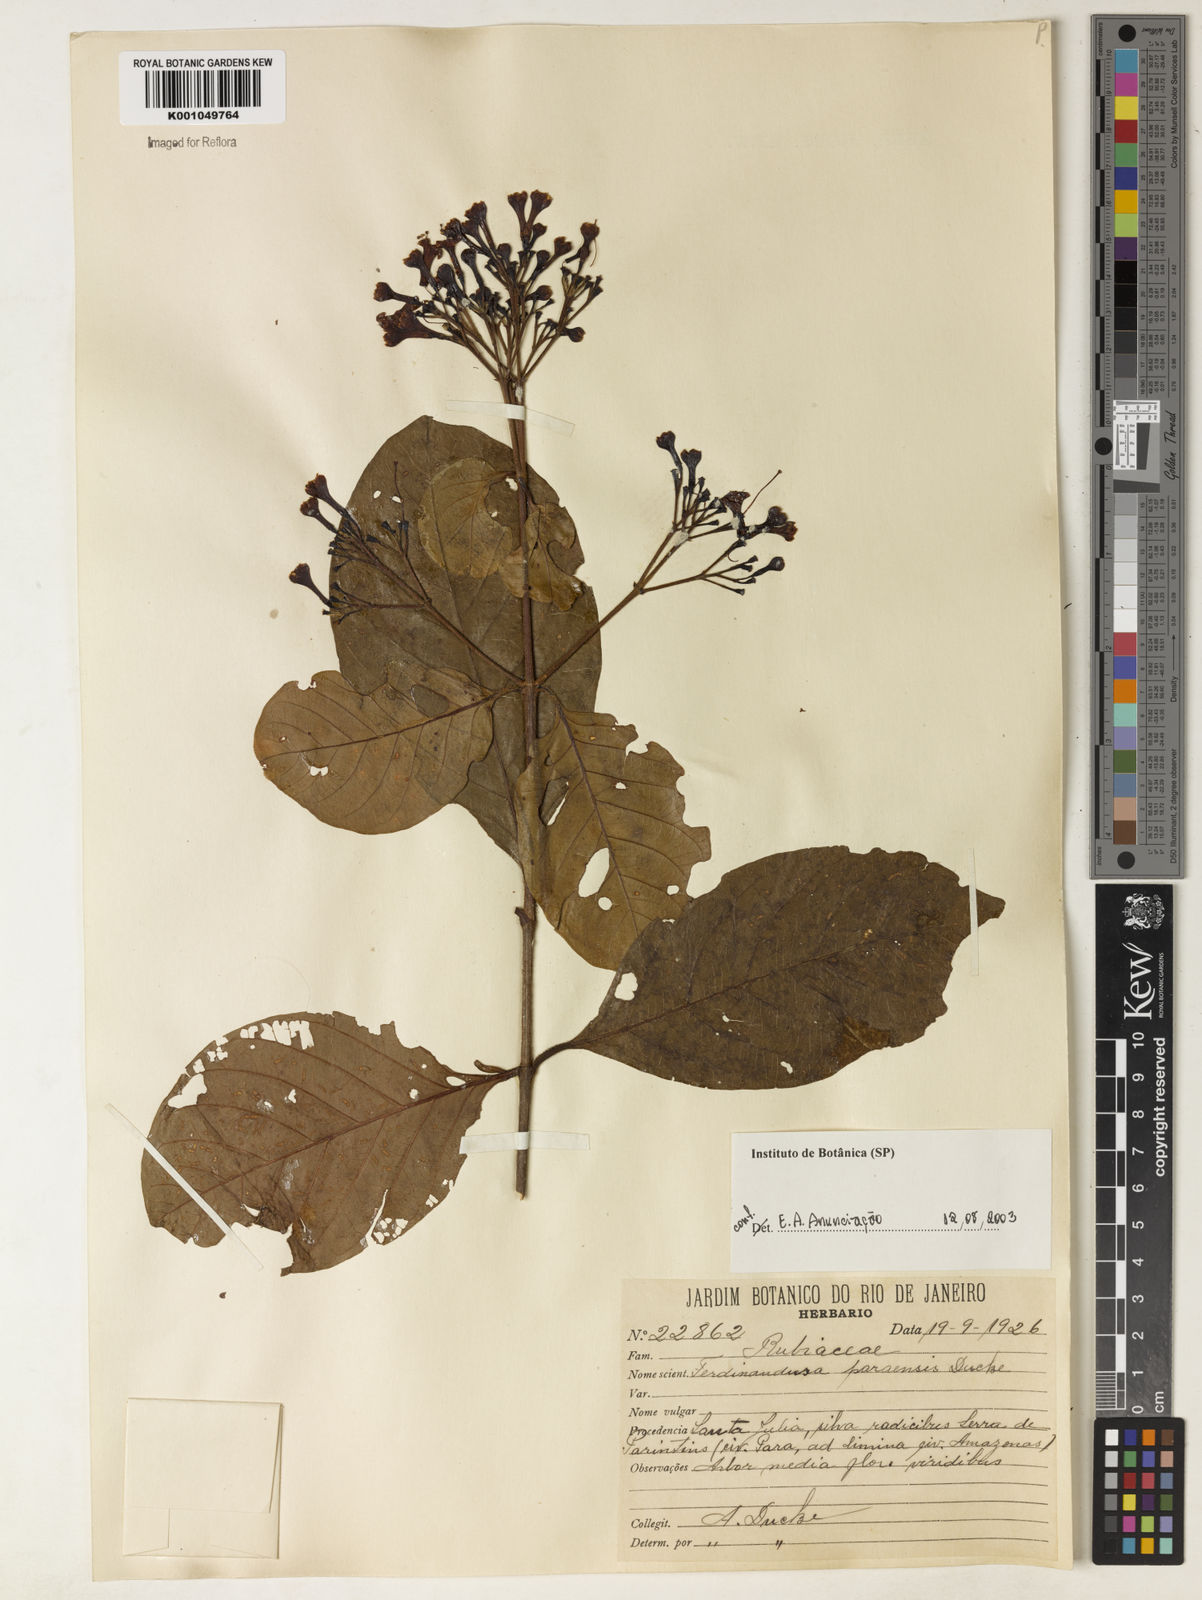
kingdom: Plantae
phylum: Tracheophyta
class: Magnoliopsida
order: Gentianales
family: Rubiaceae
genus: Ferdinandusa
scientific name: Ferdinandusa paraensis
